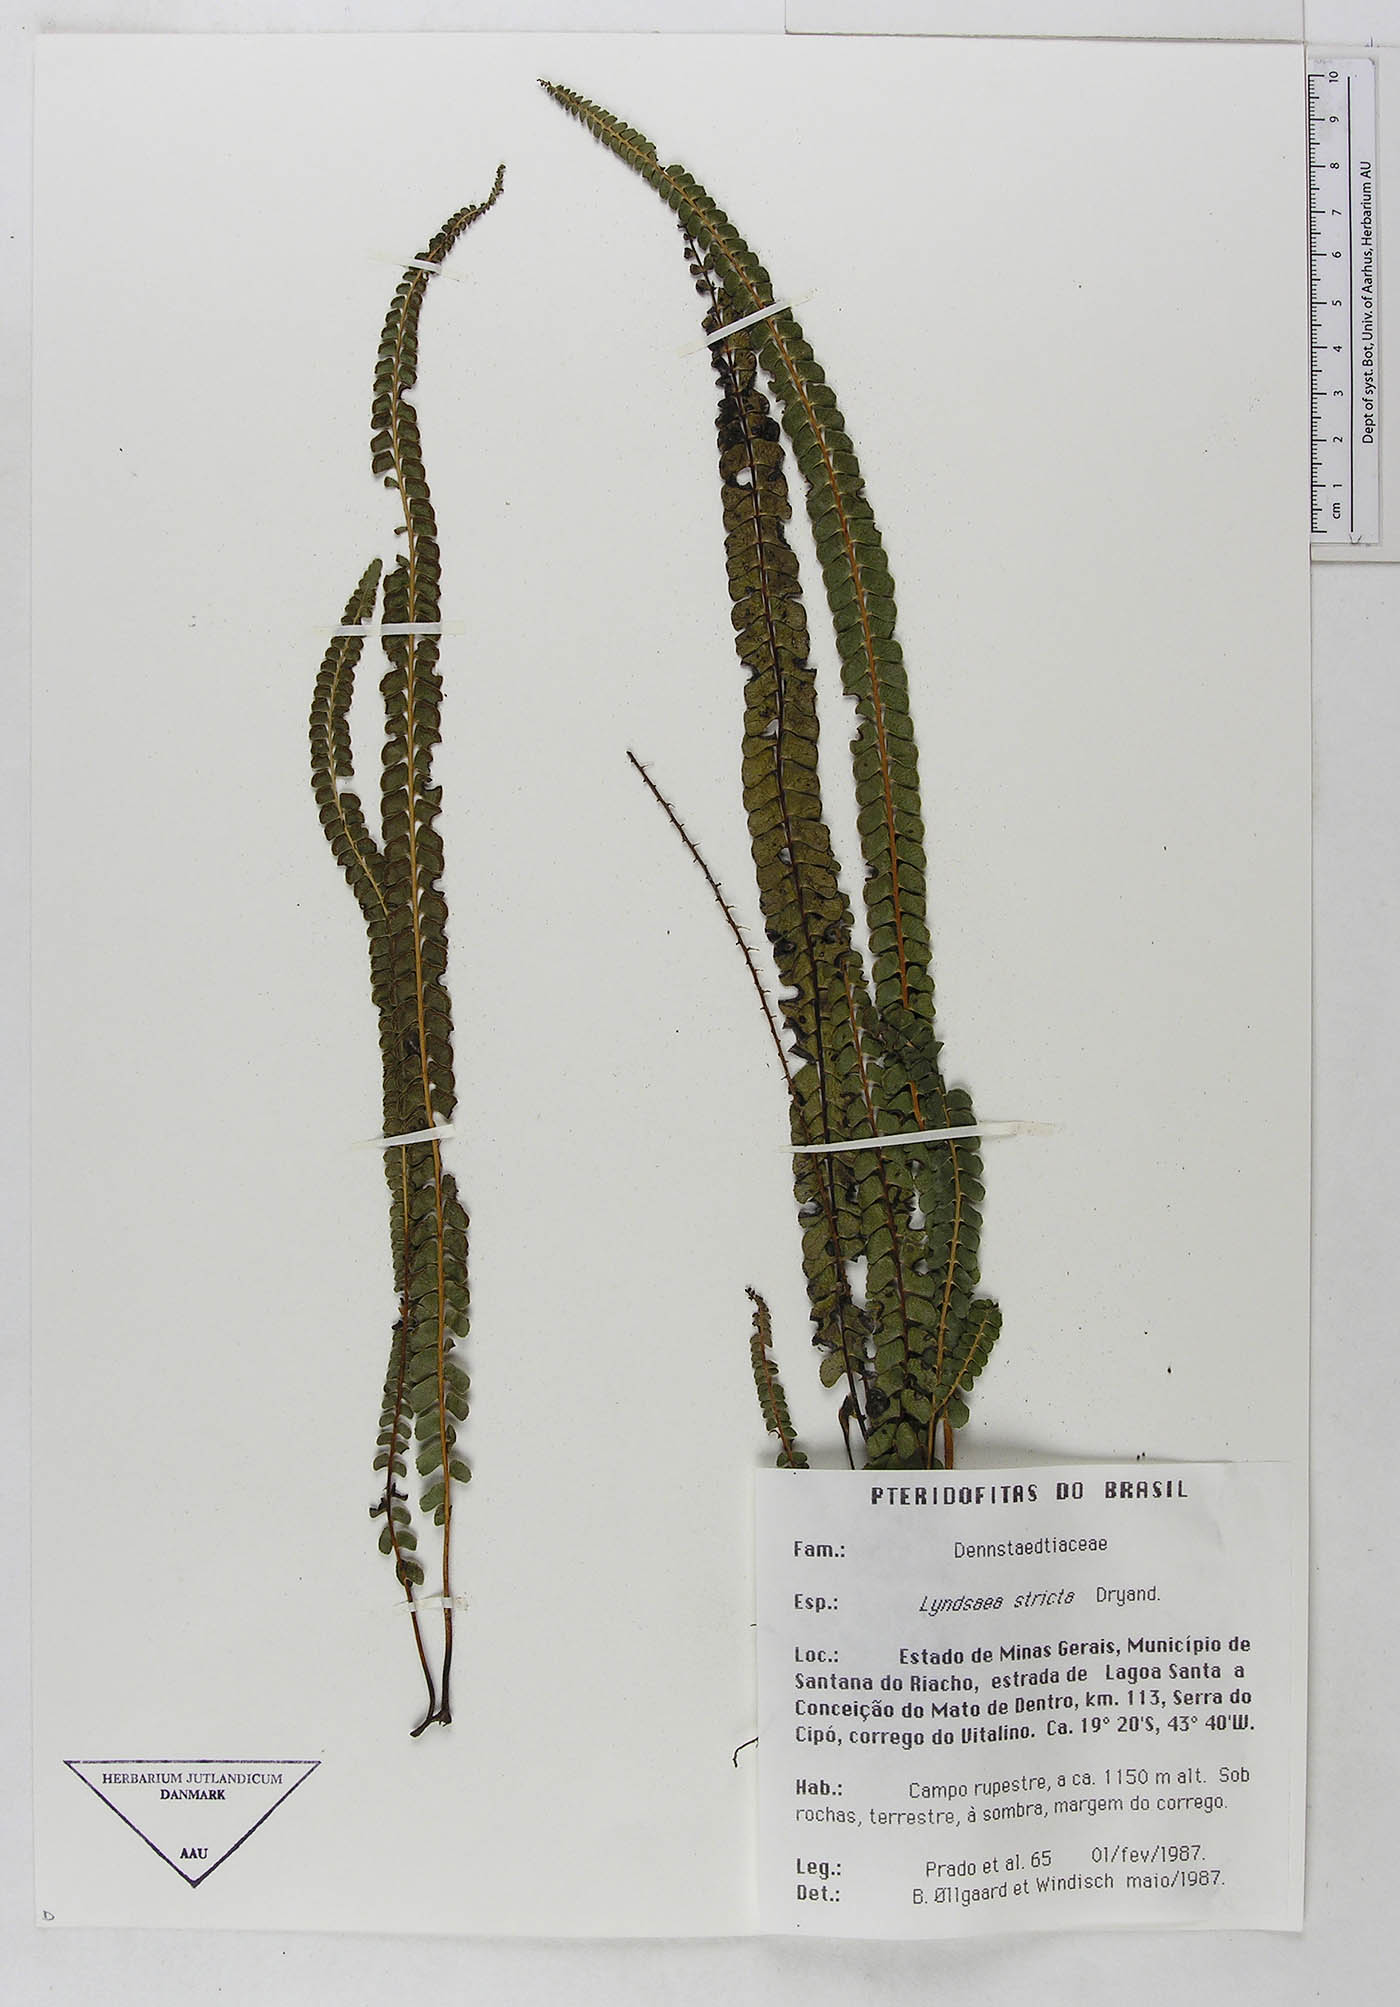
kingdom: Plantae
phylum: Tracheophyta
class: Polypodiopsida
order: Polypodiales
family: Lindsaeaceae
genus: Lindsaea
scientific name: Lindsaea stricta
